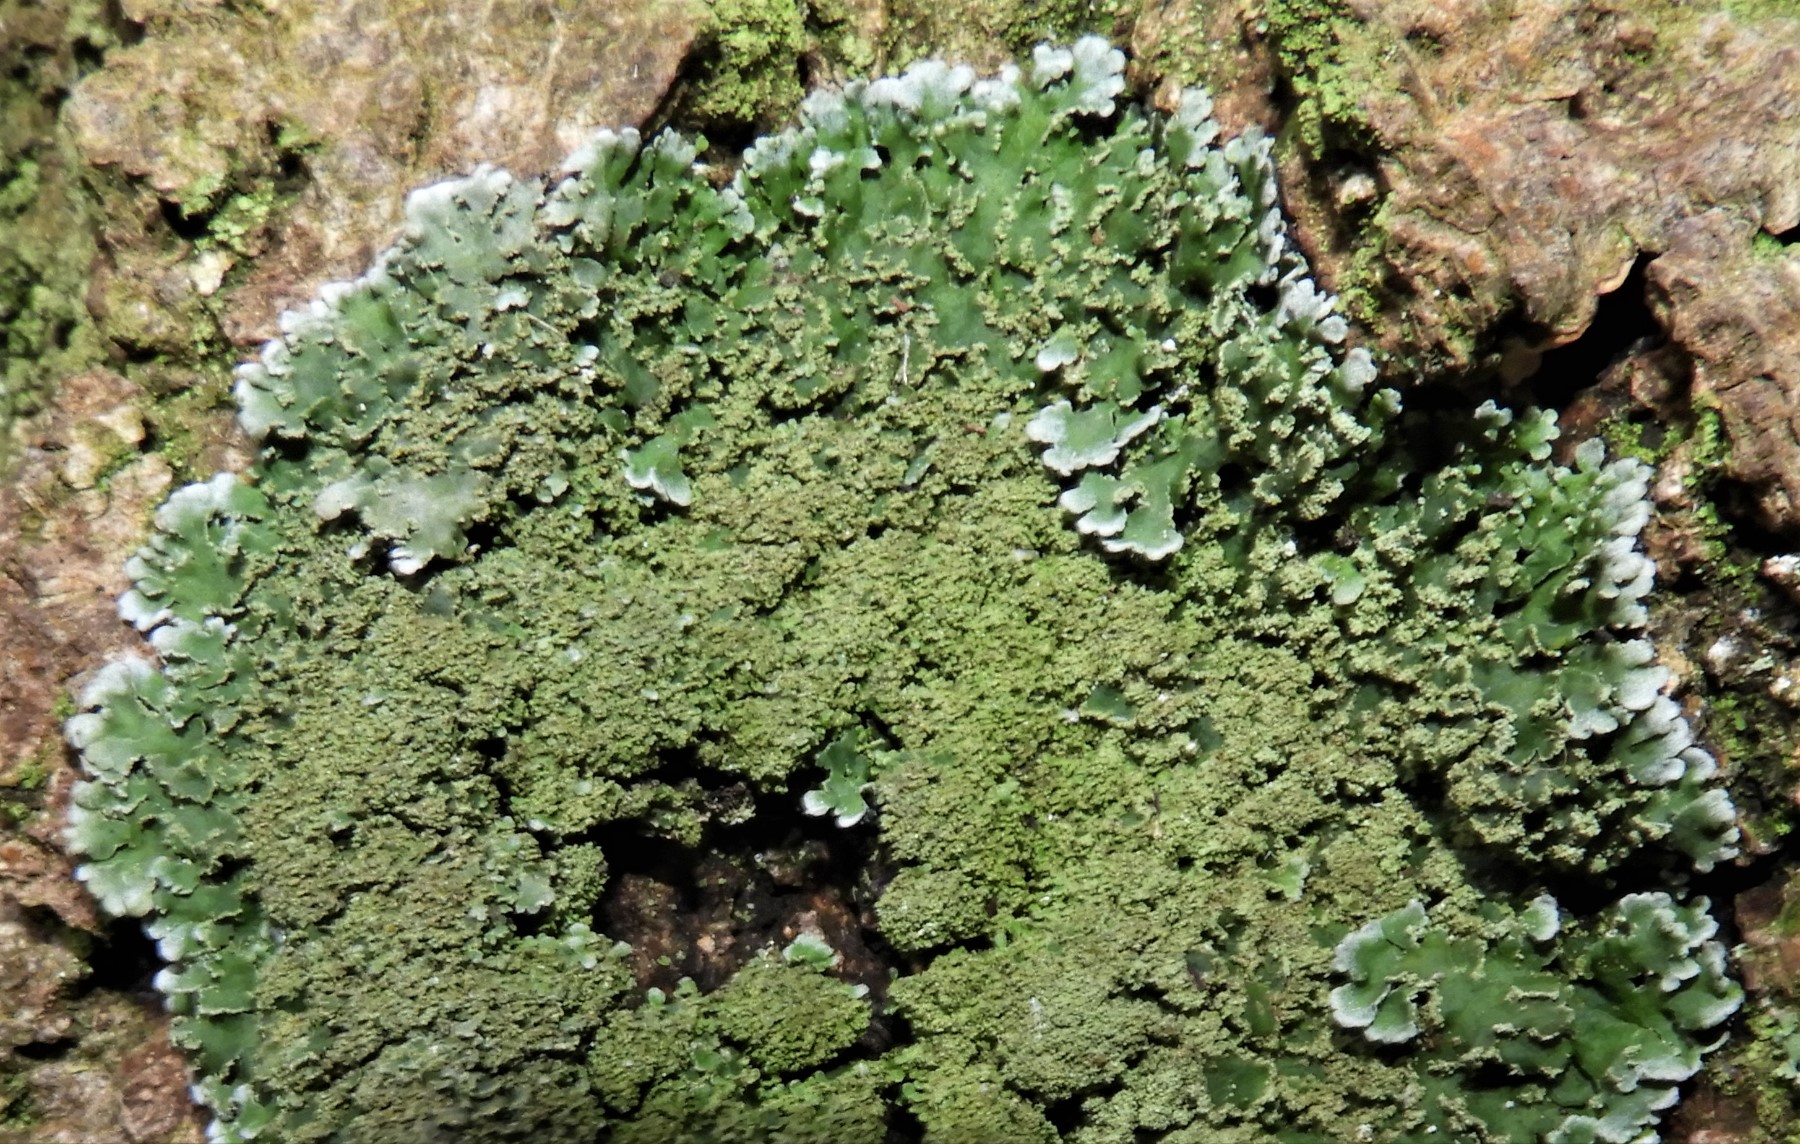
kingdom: Fungi
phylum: Ascomycota
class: Lecanoromycetes
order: Caliciales
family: Physciaceae
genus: Physconia
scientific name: Physconia perisidiosa
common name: liden dugrosetlav
